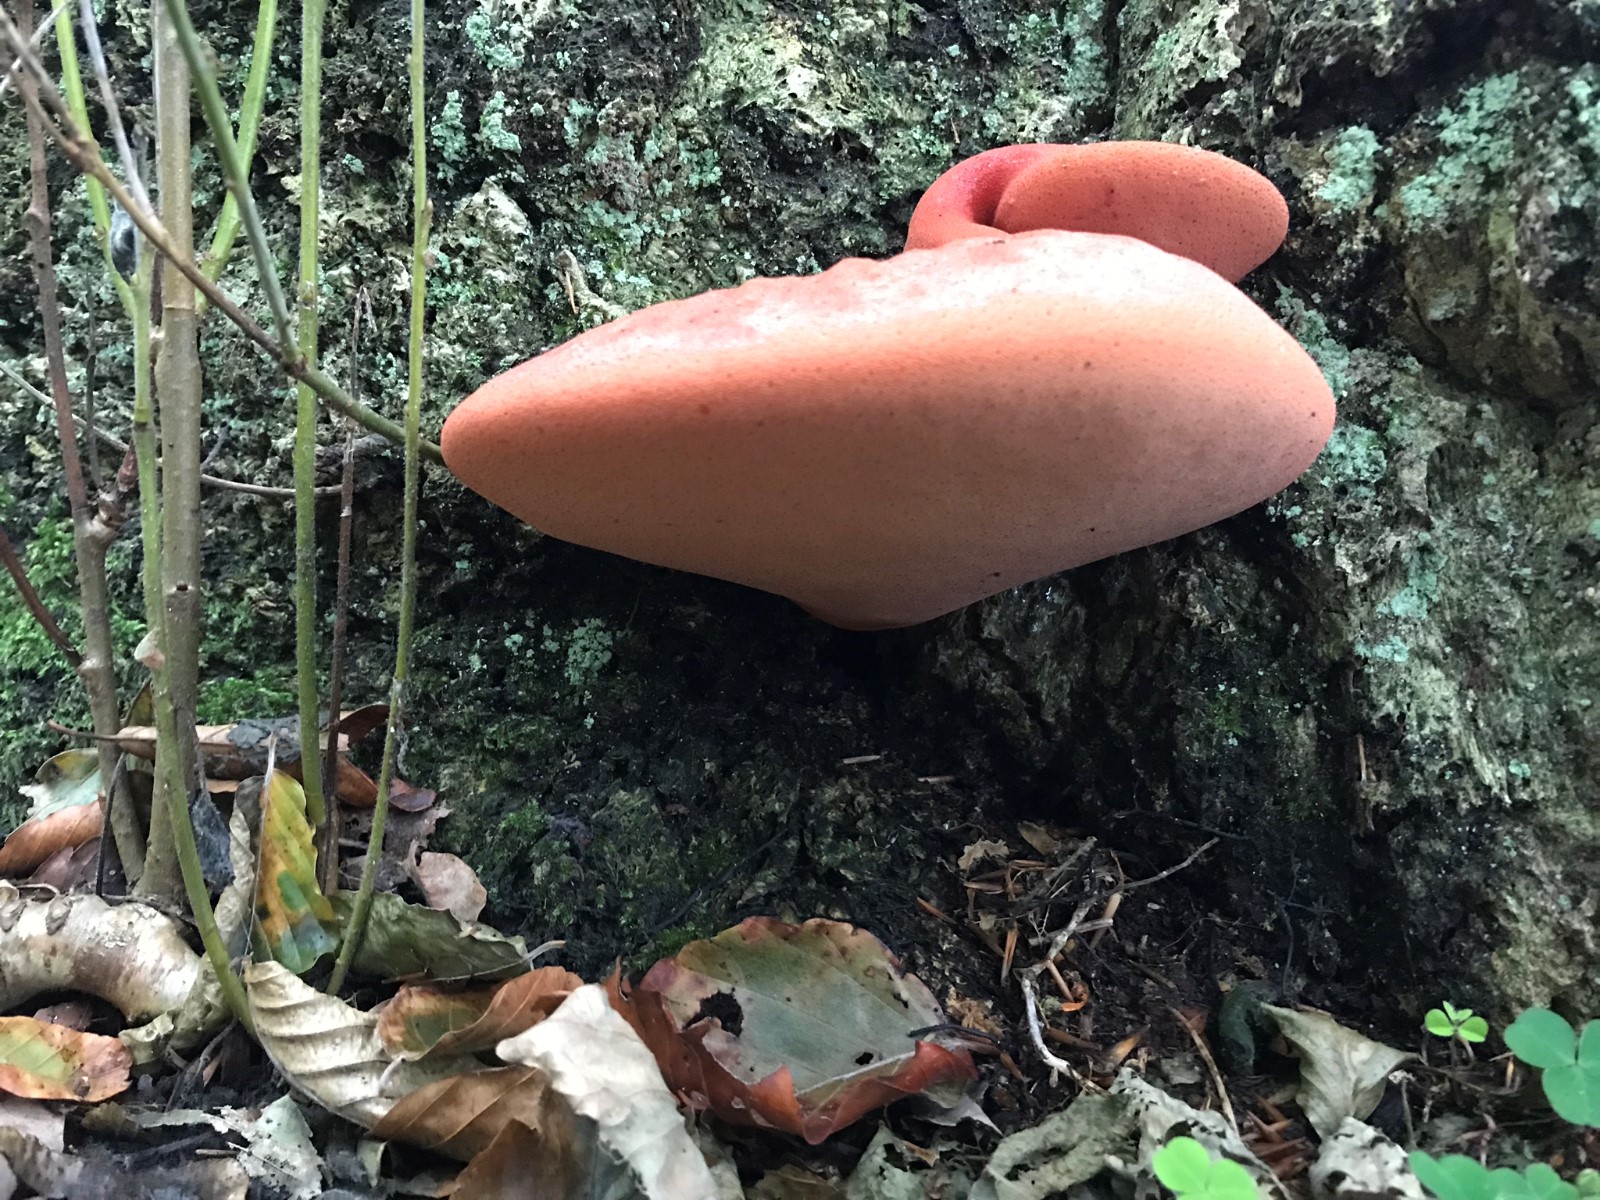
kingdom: Fungi
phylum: Basidiomycota
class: Agaricomycetes
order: Agaricales
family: Fistulinaceae
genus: Fistulina
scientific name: Fistulina hepatica
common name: oksetunge
